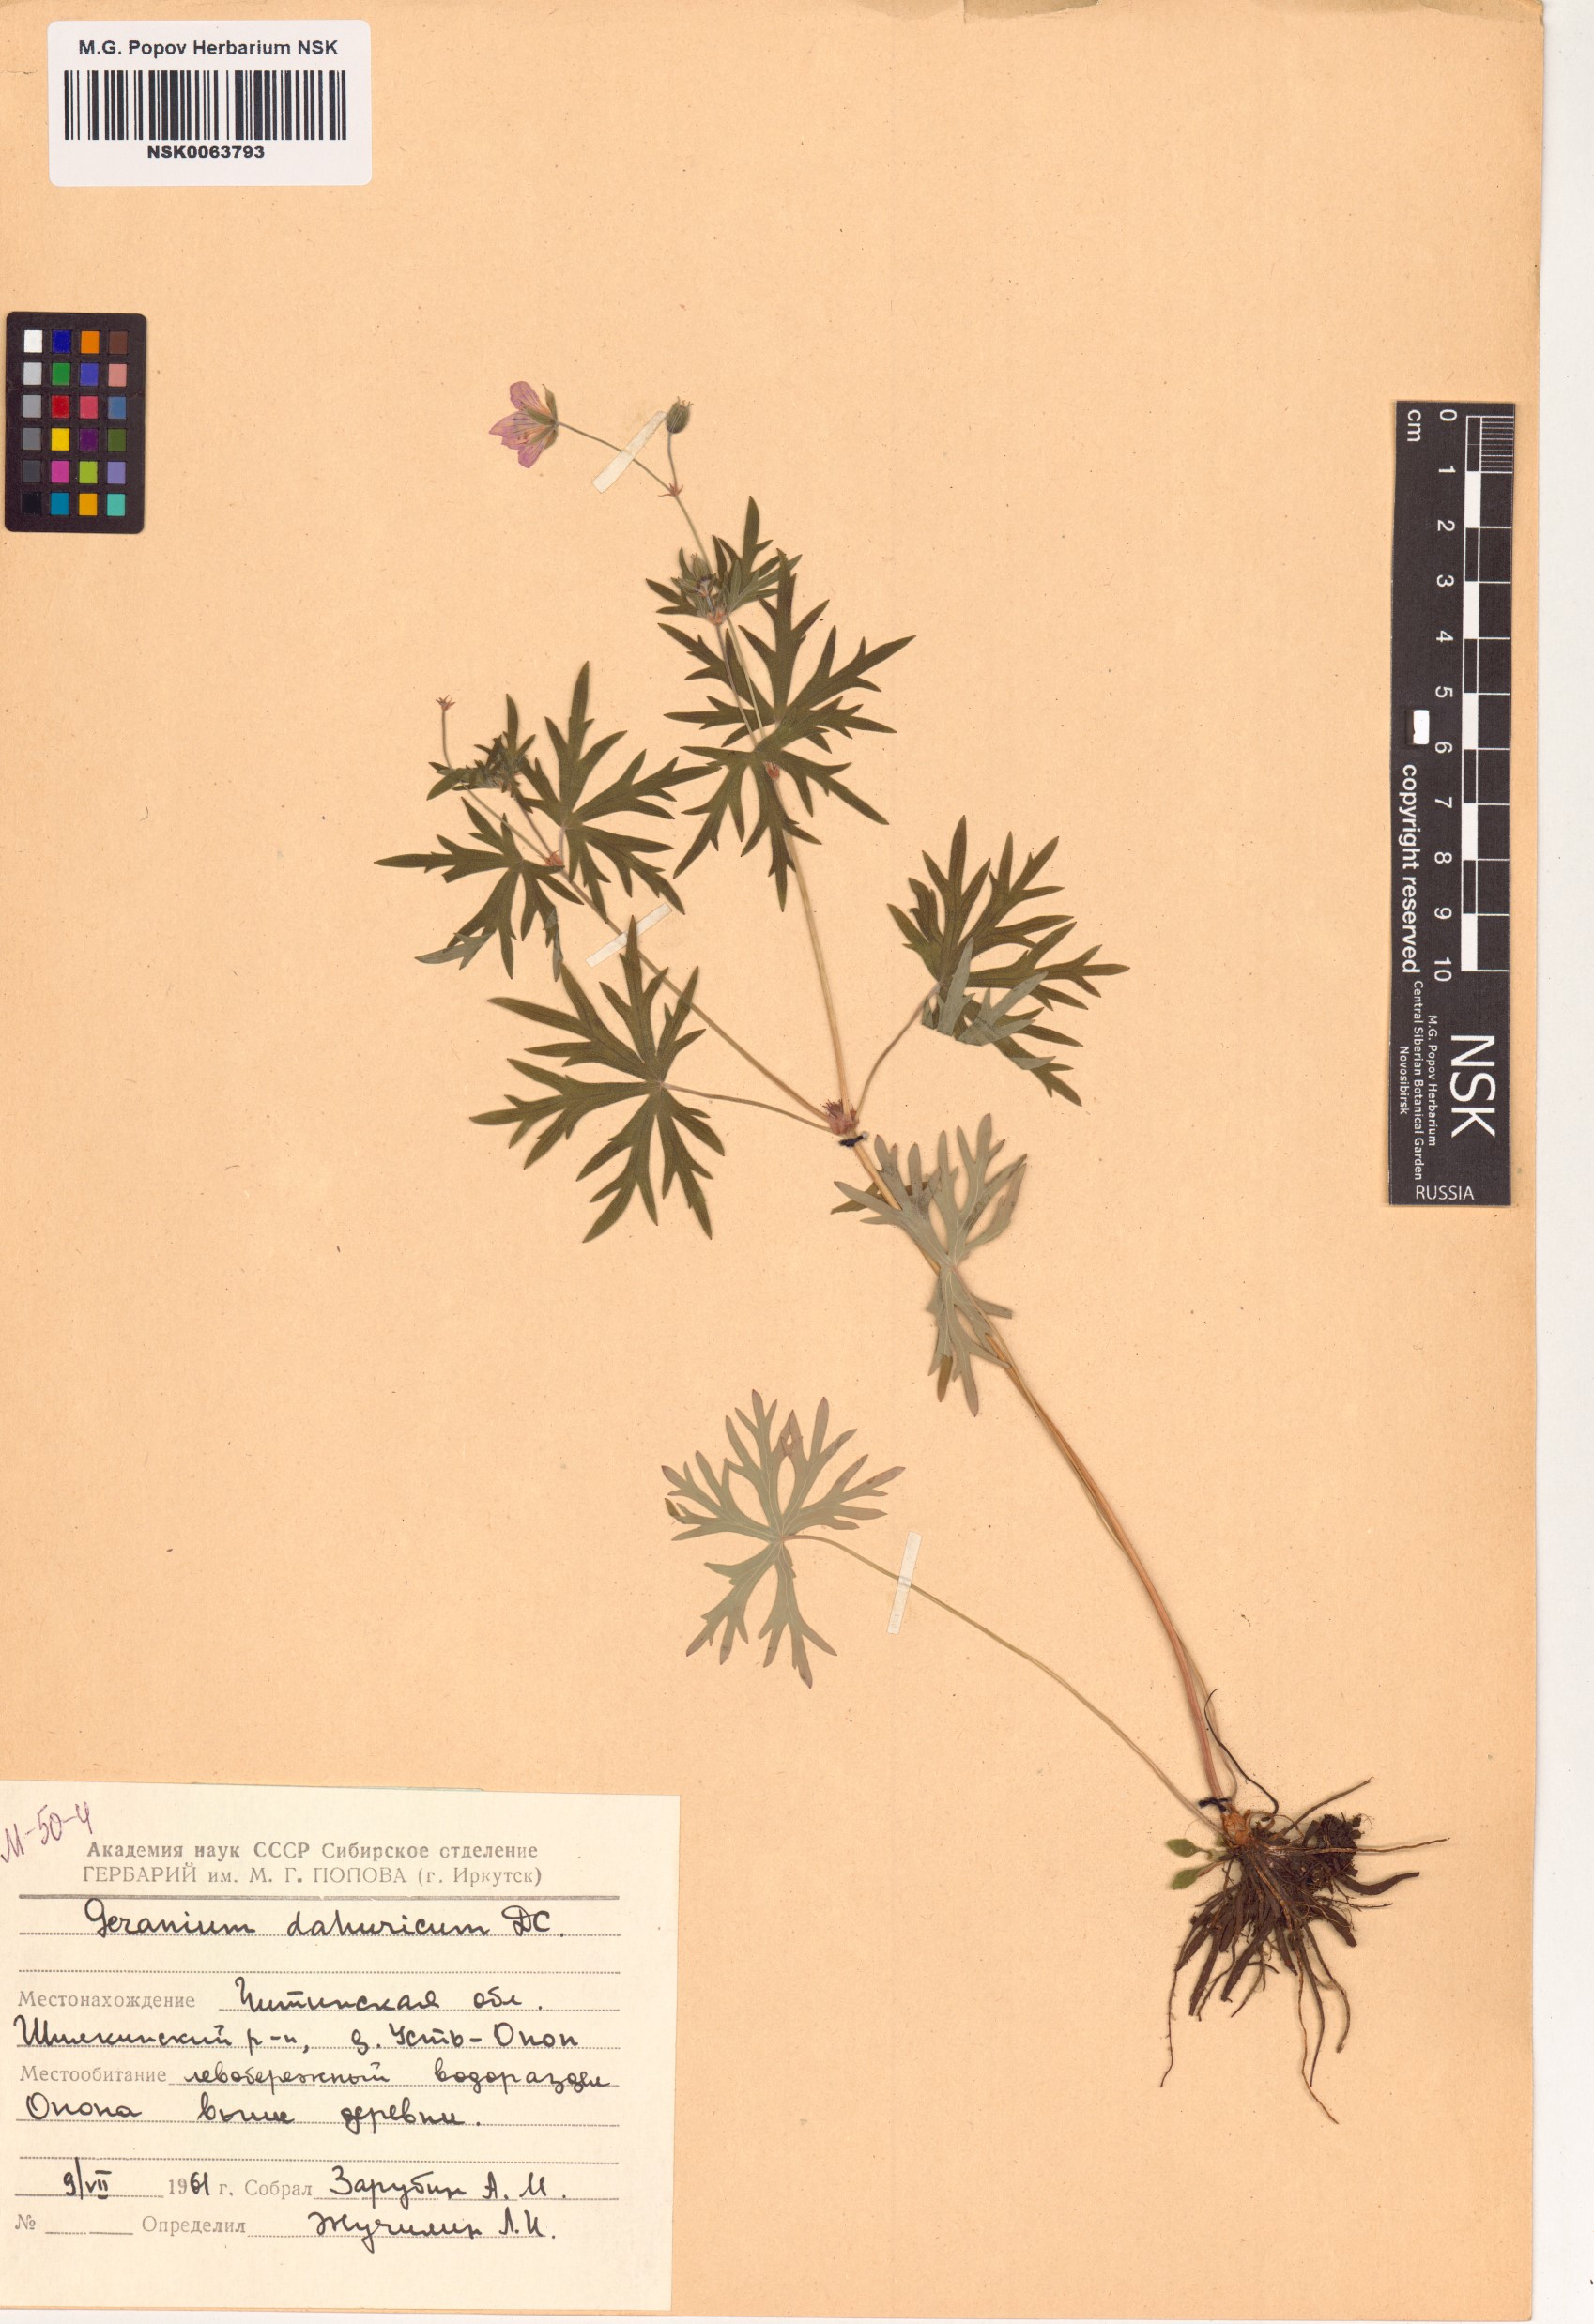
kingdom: Plantae
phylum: Tracheophyta
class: Magnoliopsida
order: Geraniales
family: Geraniaceae
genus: Geranium
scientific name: Geranium dahuricum
